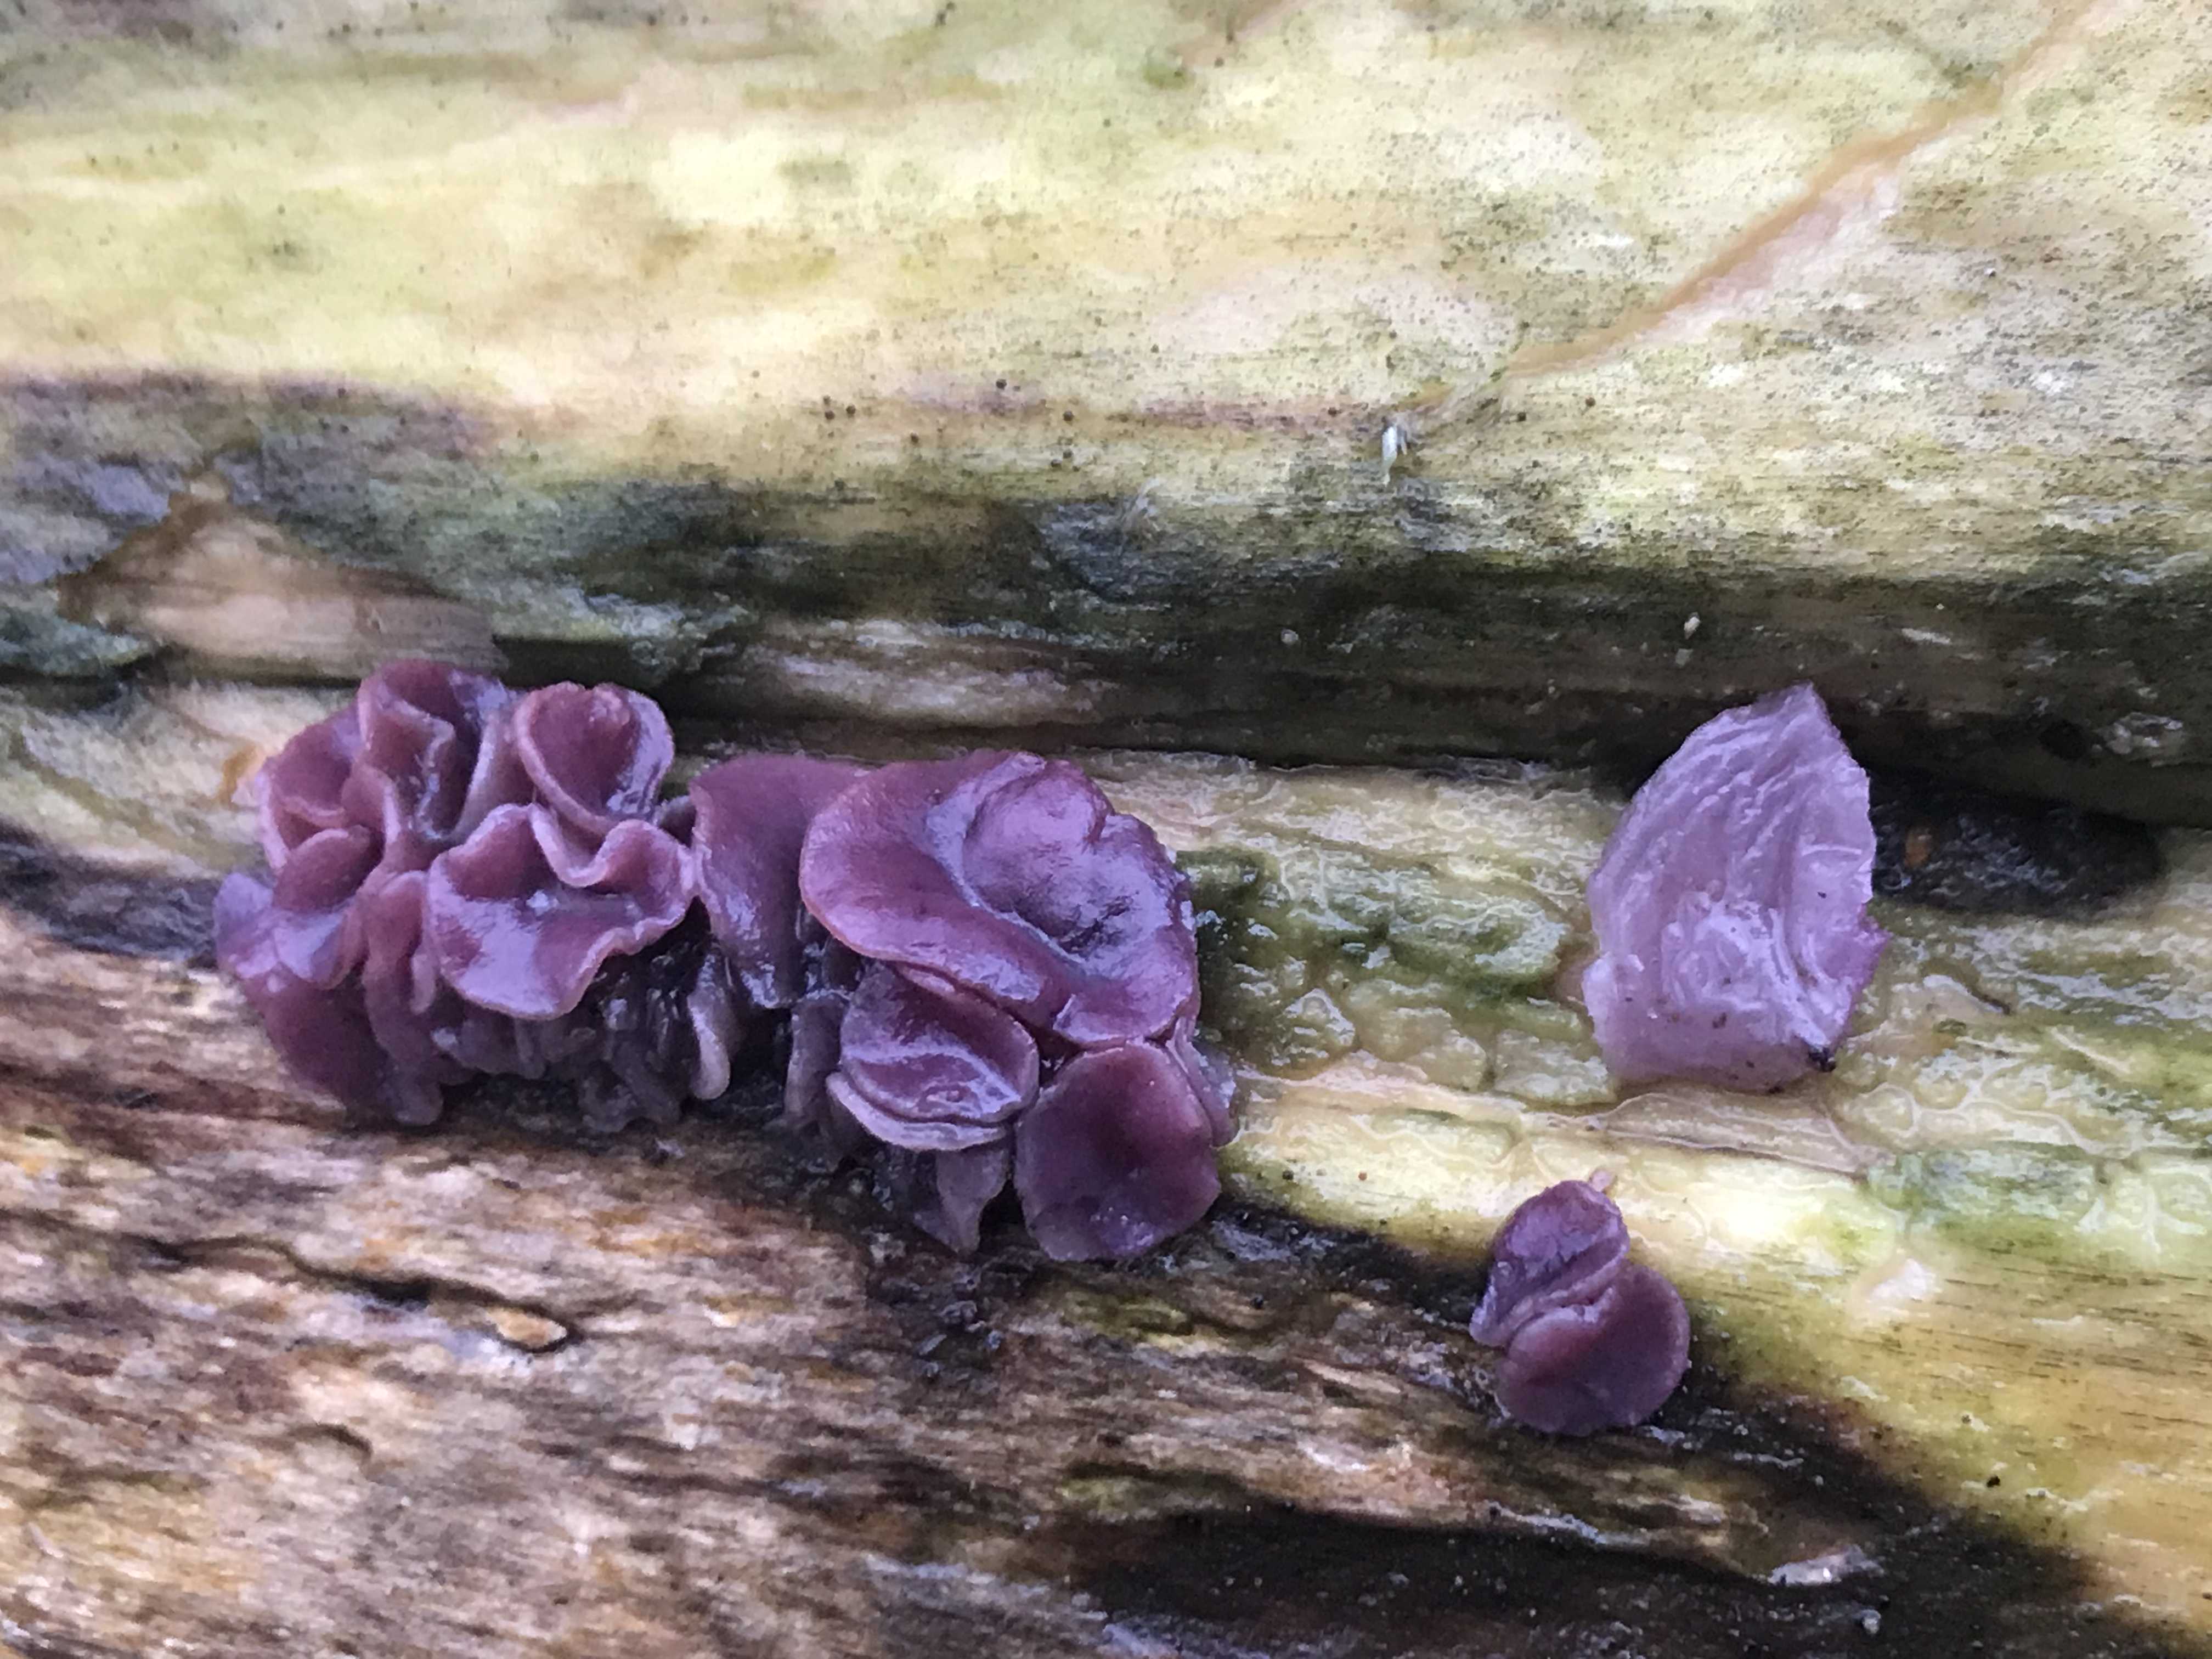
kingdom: Fungi
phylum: Ascomycota
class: Leotiomycetes
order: Helotiales
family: Gelatinodiscaceae
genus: Ascocoryne
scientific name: Ascocoryne
